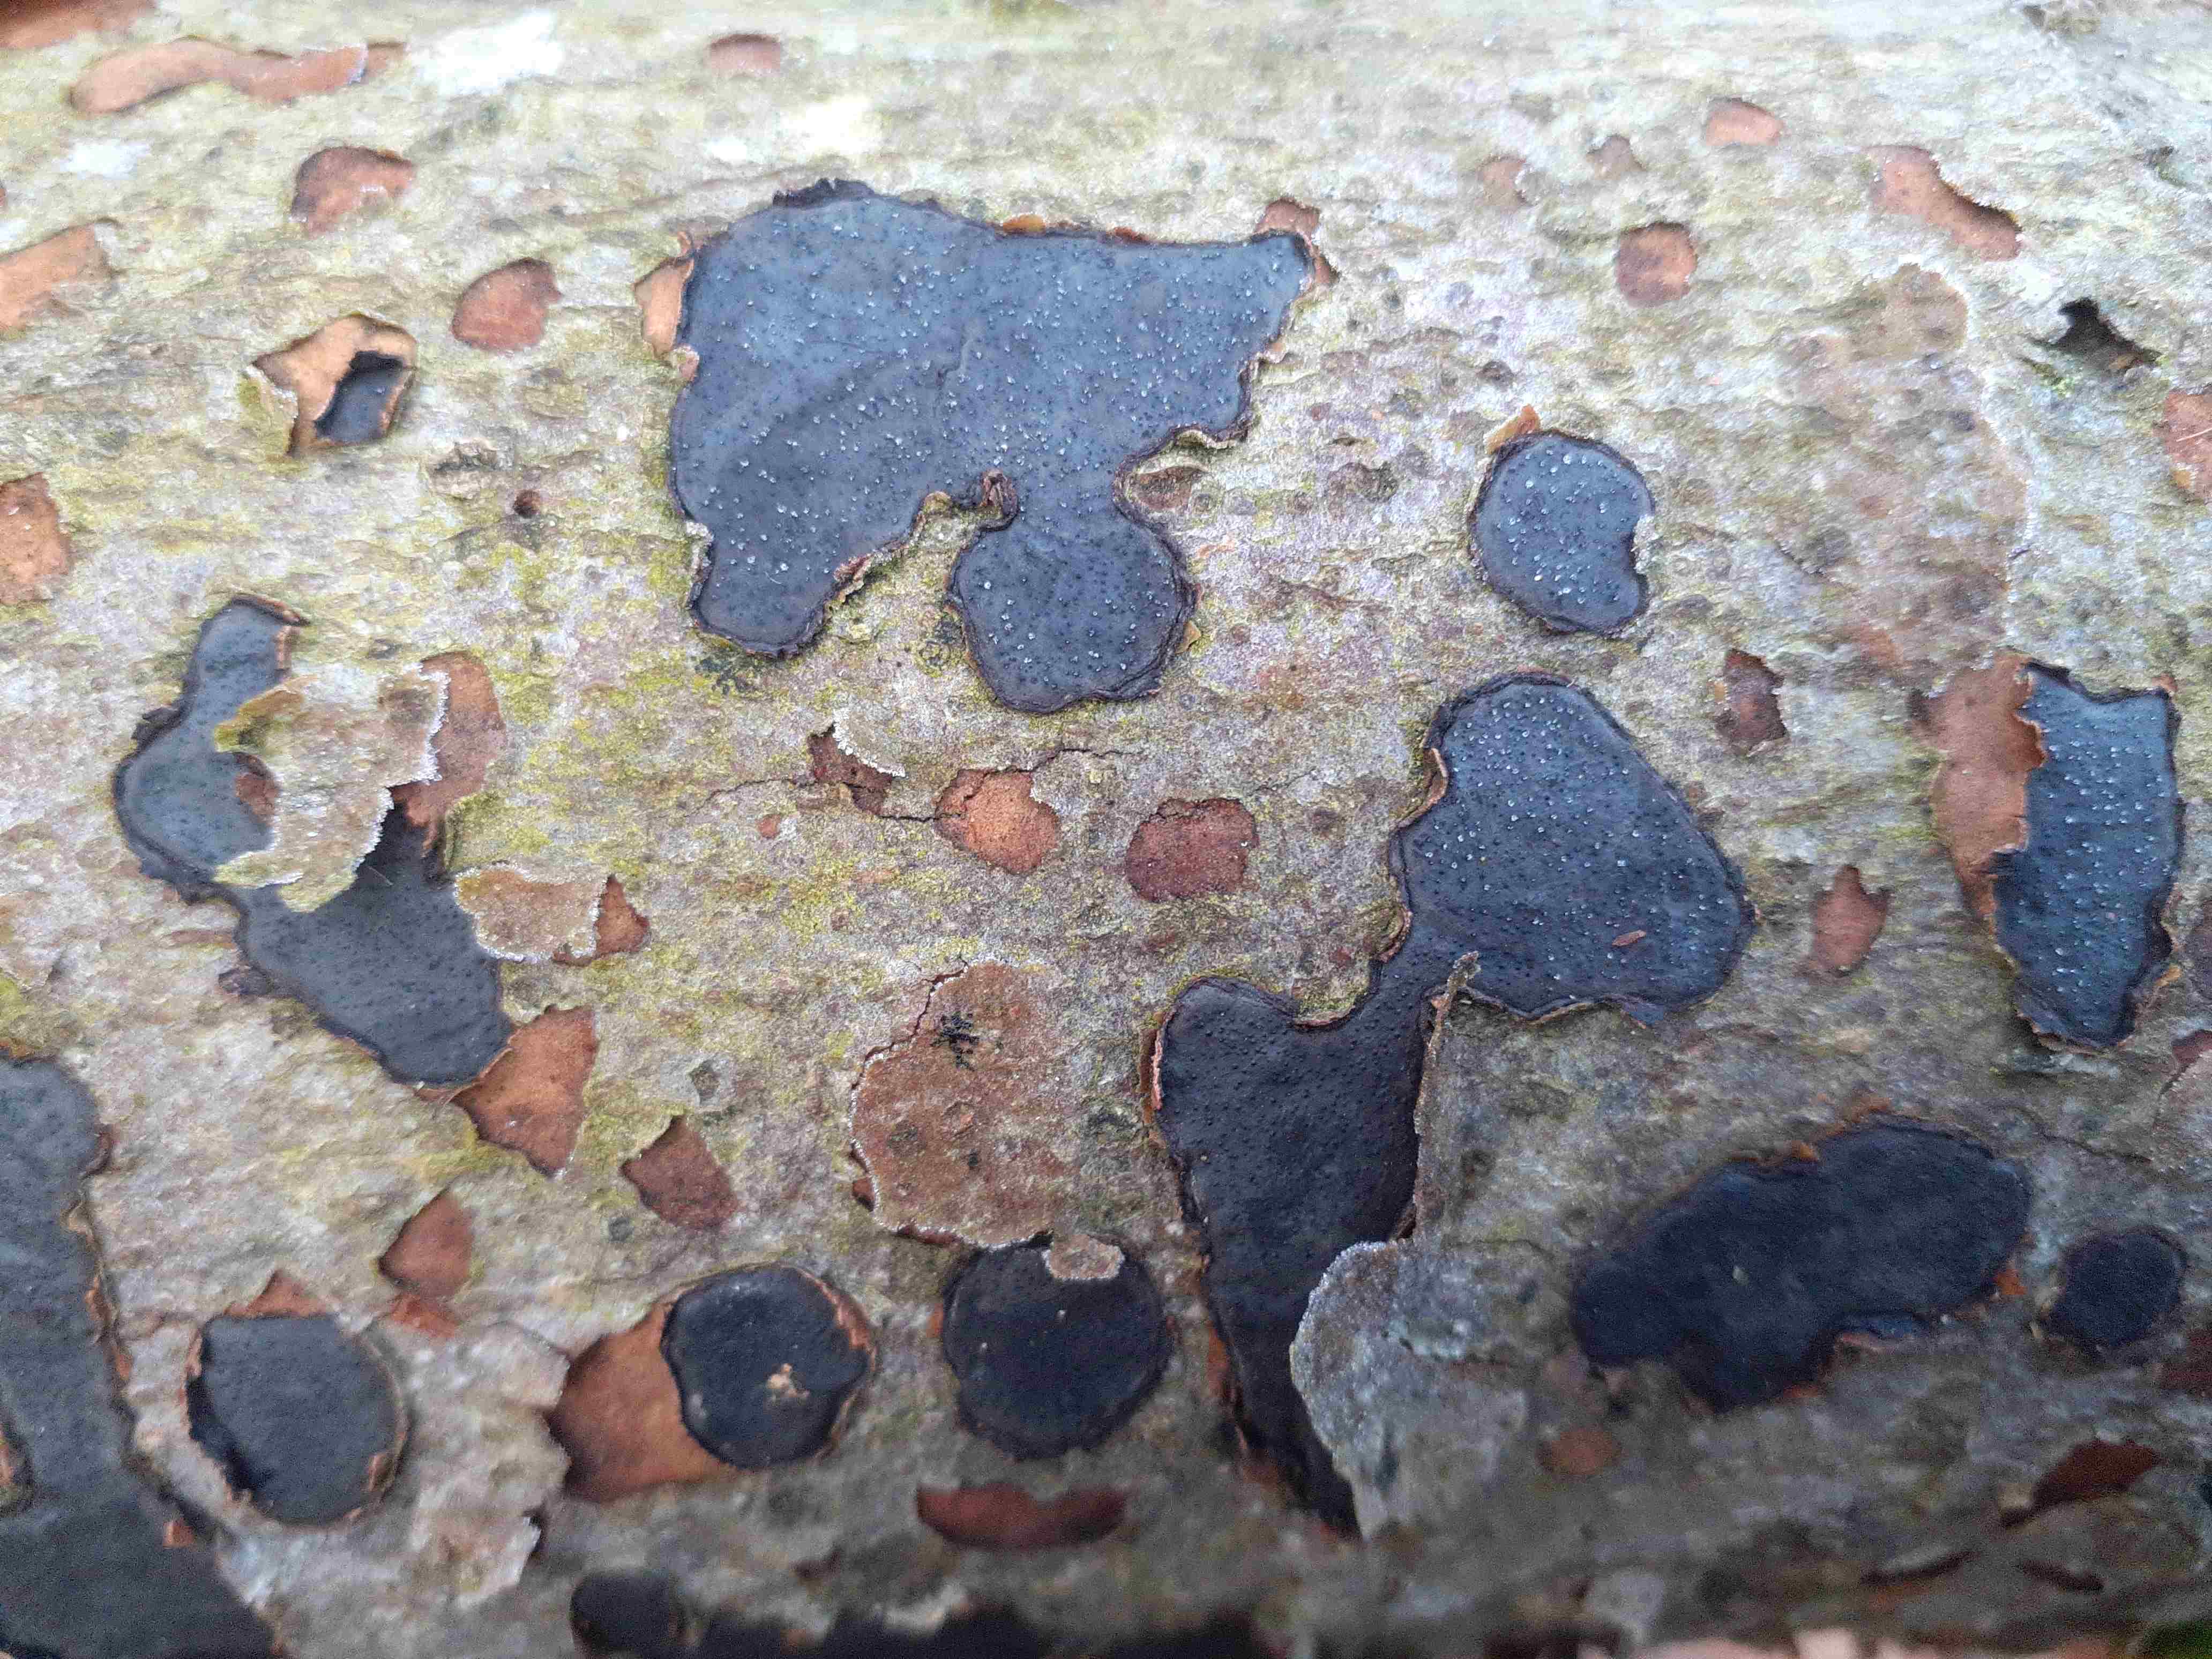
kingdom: Fungi
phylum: Ascomycota
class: Sordariomycetes
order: Xylariales
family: Graphostromataceae
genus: Biscogniauxia
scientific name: Biscogniauxia nummularia
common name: bøge-kulskive
